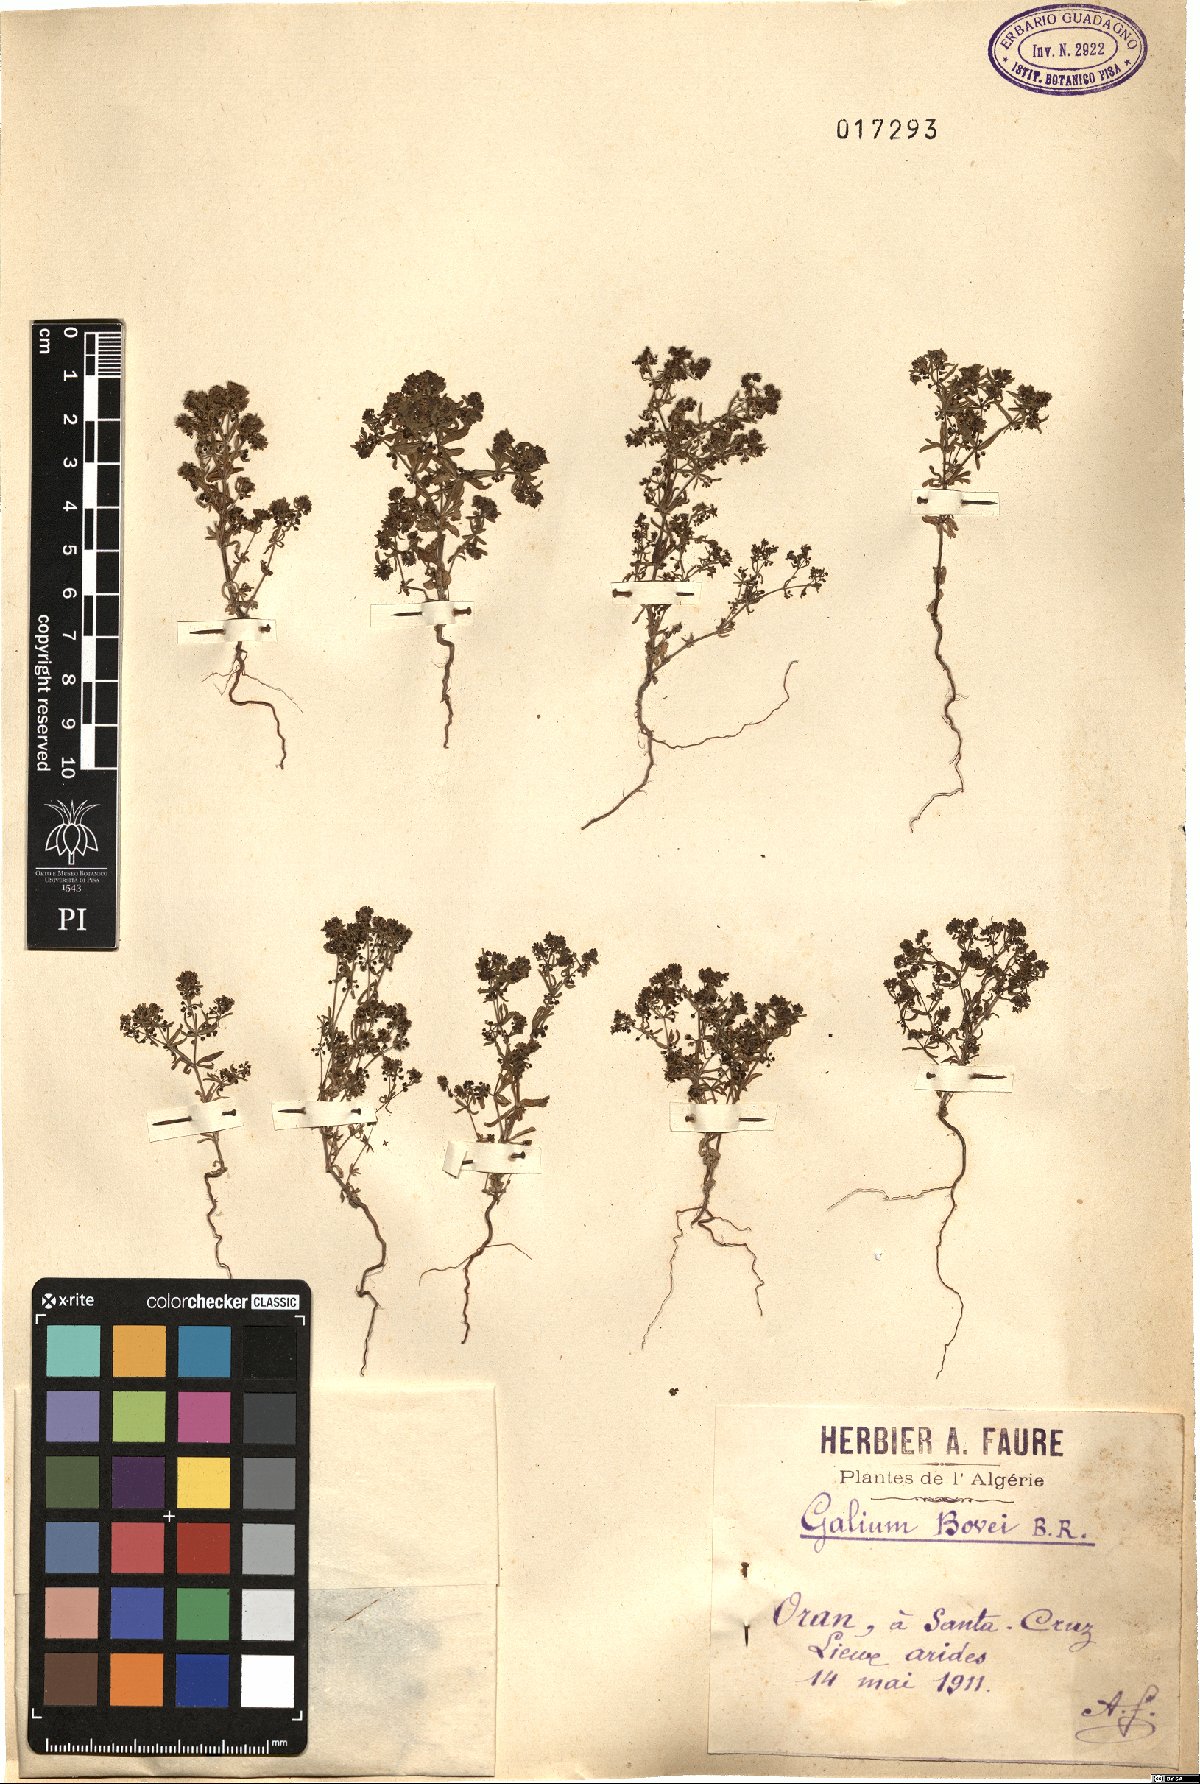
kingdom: Plantae
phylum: Tracheophyta
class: Magnoliopsida
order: Gentianales
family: Rubiaceae
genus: Galium
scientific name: Galium viscosum
